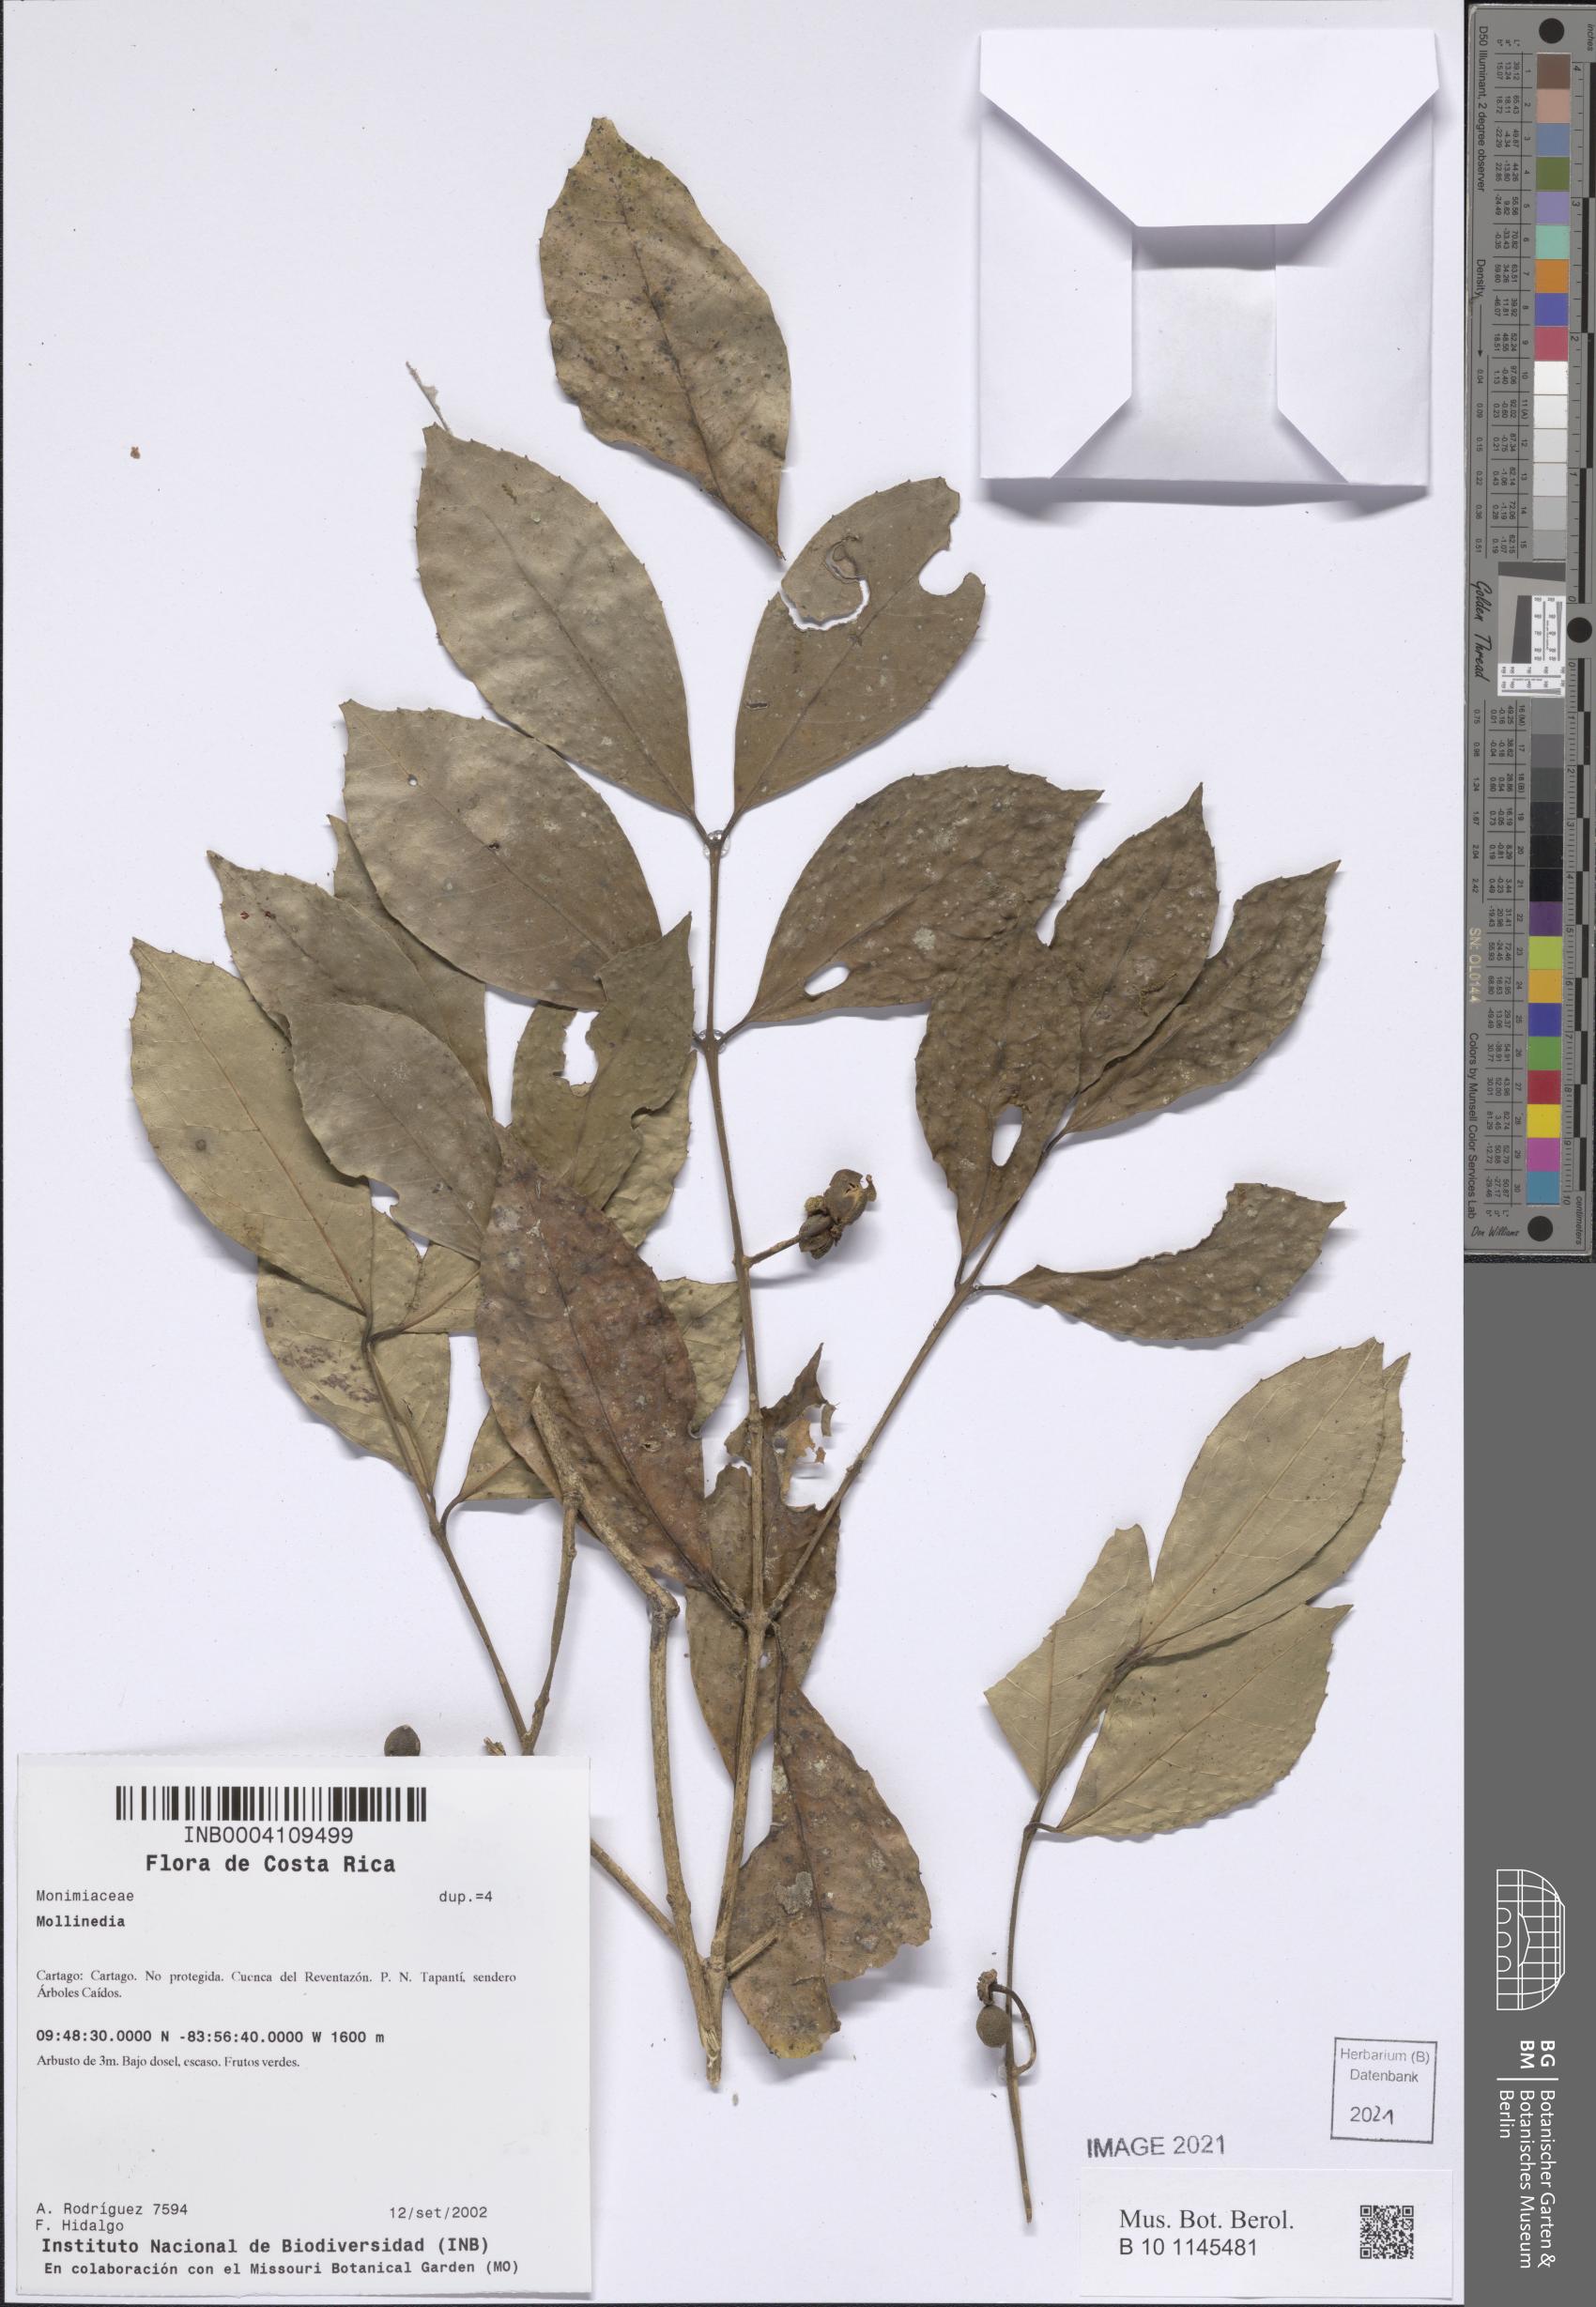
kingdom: Plantae
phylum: Tracheophyta
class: Magnoliopsida
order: Laurales
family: Monimiaceae
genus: Mollinedia
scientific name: Mollinedia viridiflora
